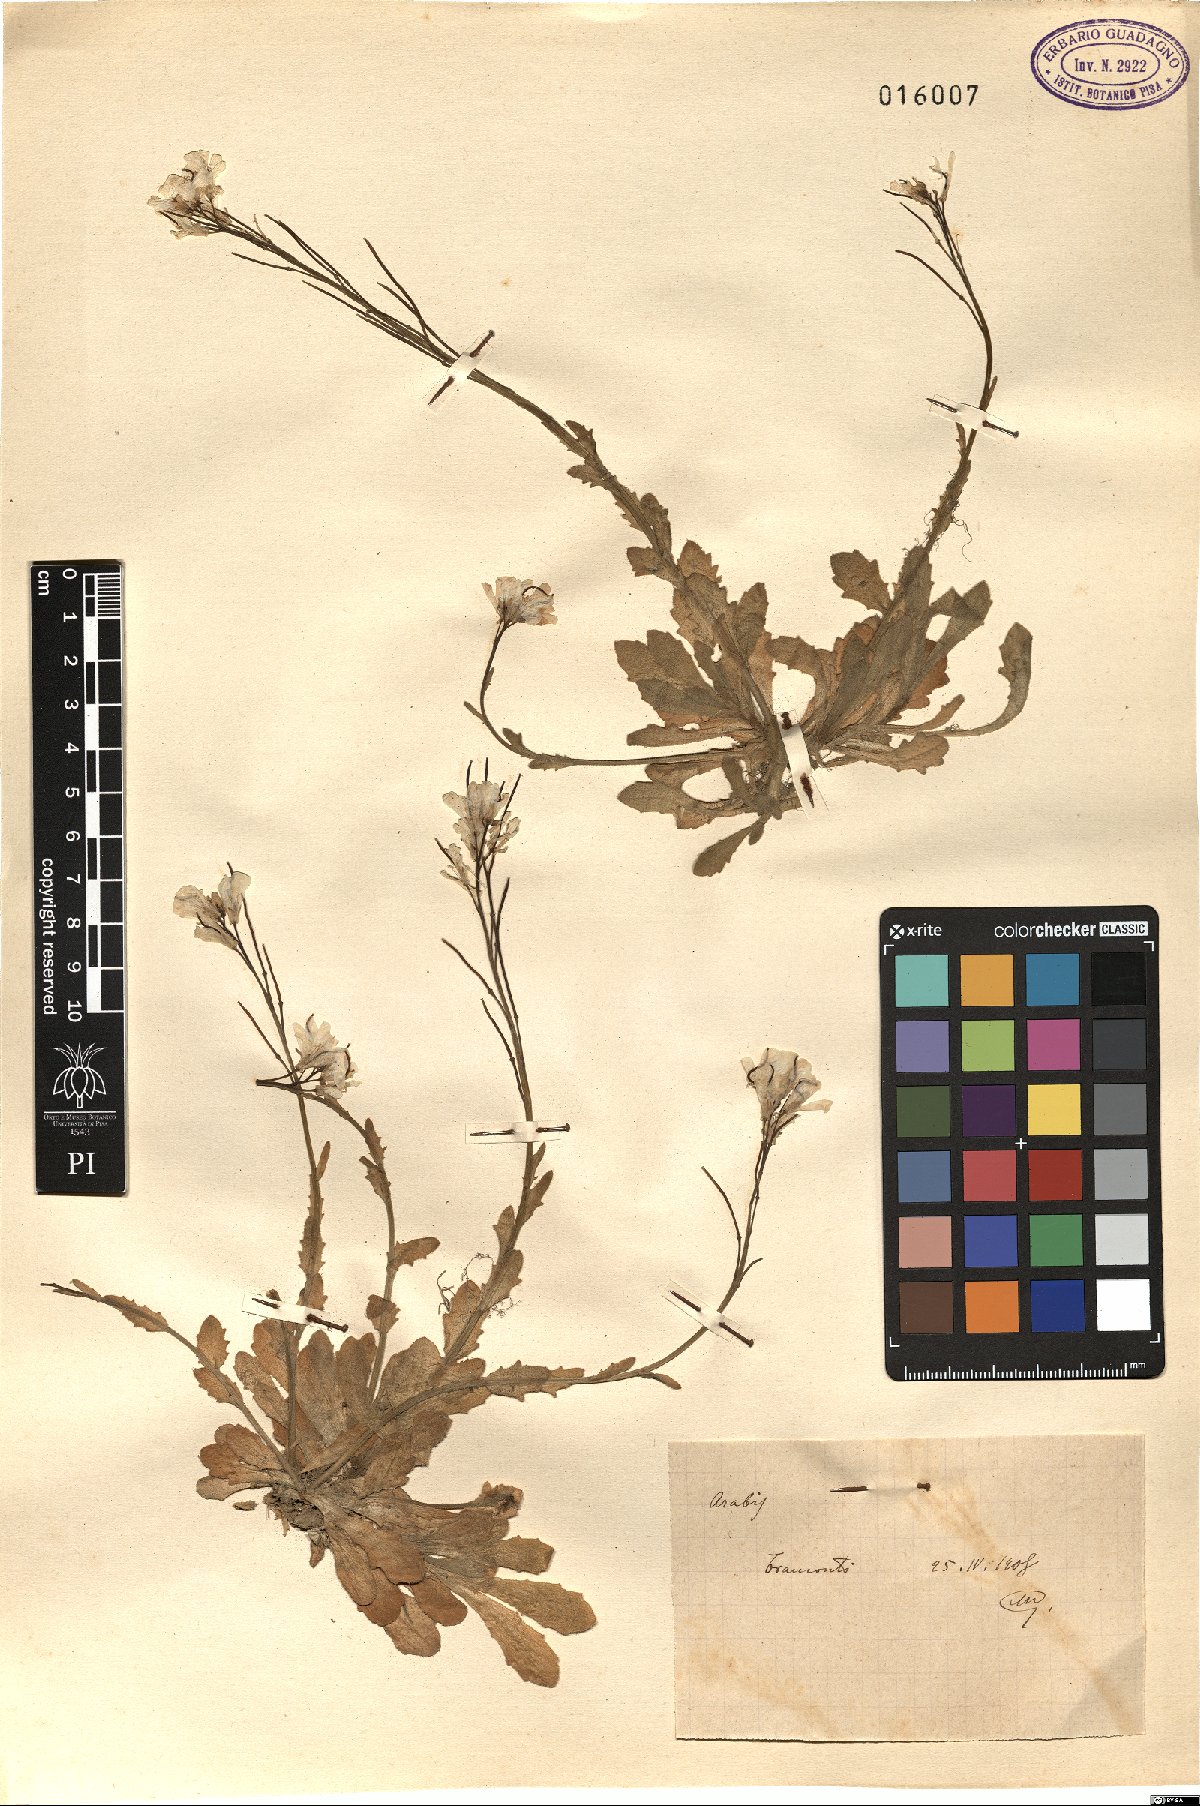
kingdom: Plantae
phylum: Tracheophyta
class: Magnoliopsida
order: Brassicales
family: Brassicaceae
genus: Arabis
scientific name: Arabis
